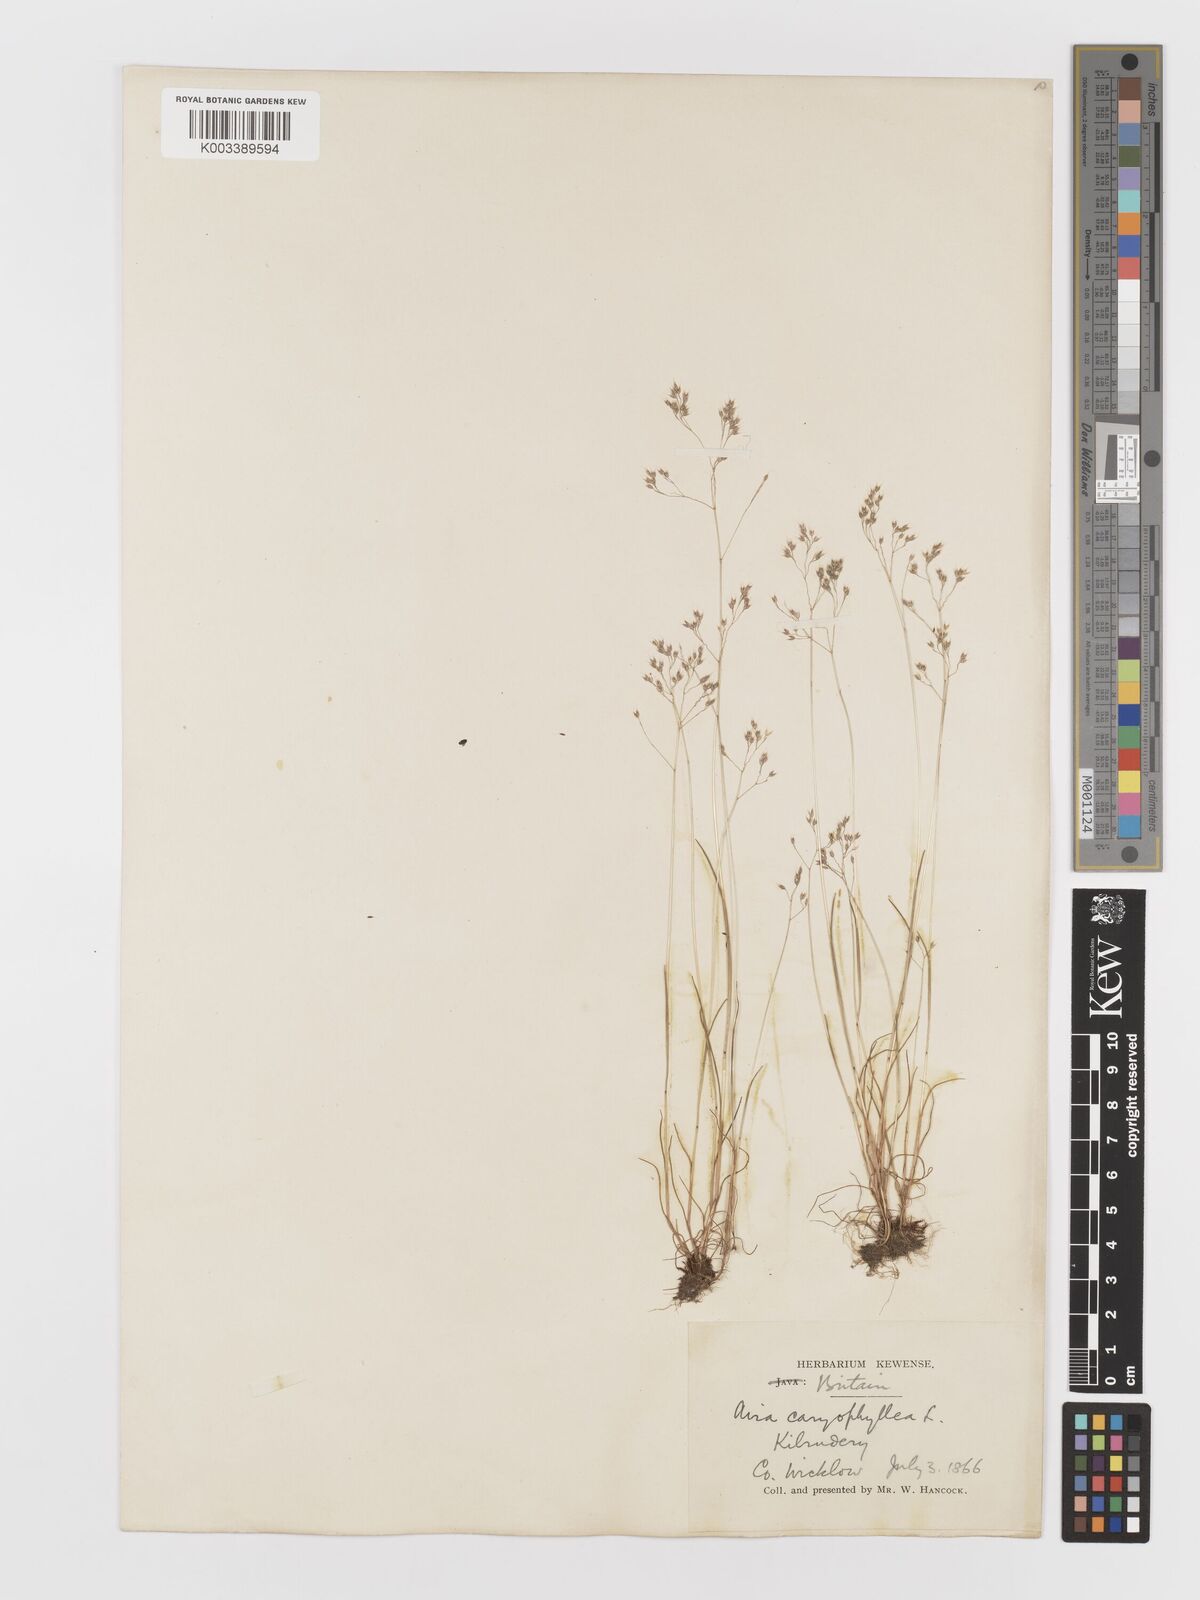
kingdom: Plantae
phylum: Tracheophyta
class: Liliopsida
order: Poales
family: Poaceae
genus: Aira
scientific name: Aira caryophyllea
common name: Silver hairgrass
